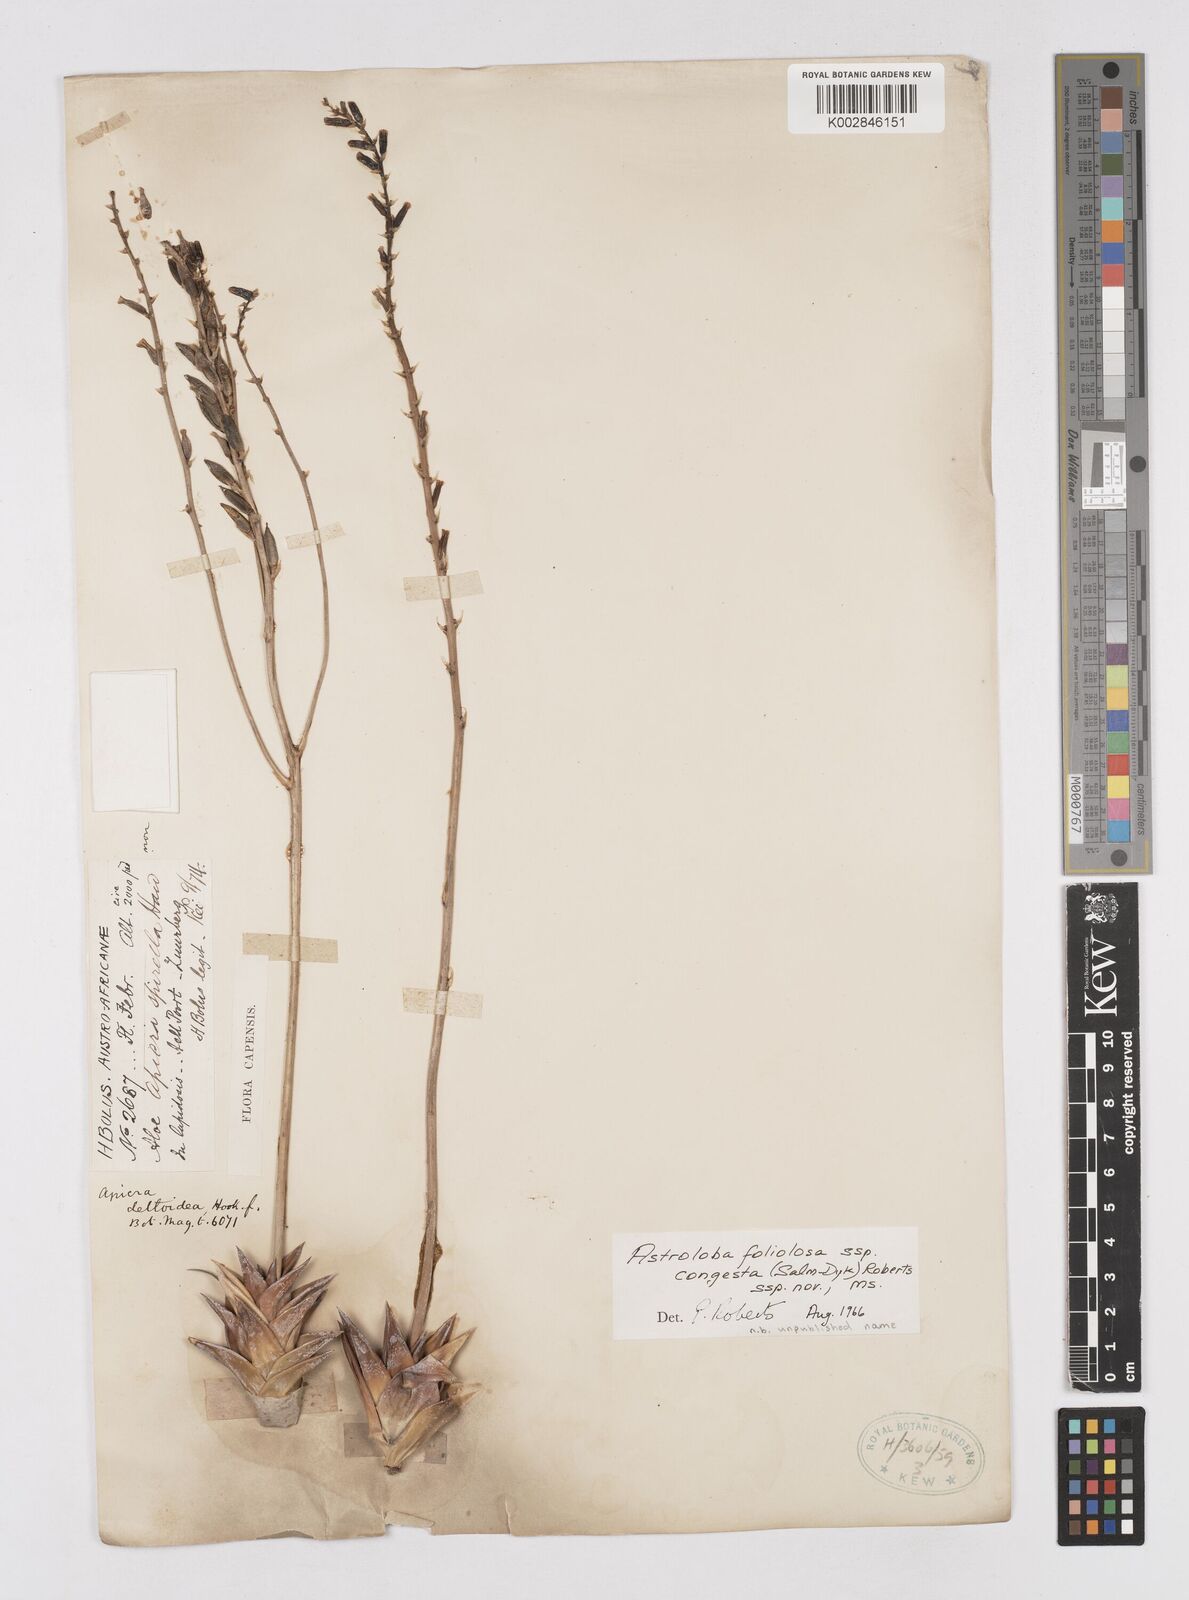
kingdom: Plantae
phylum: Tracheophyta
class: Liliopsida
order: Asparagales
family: Asphodelaceae
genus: Astroloba
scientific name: Astroloba congesta
